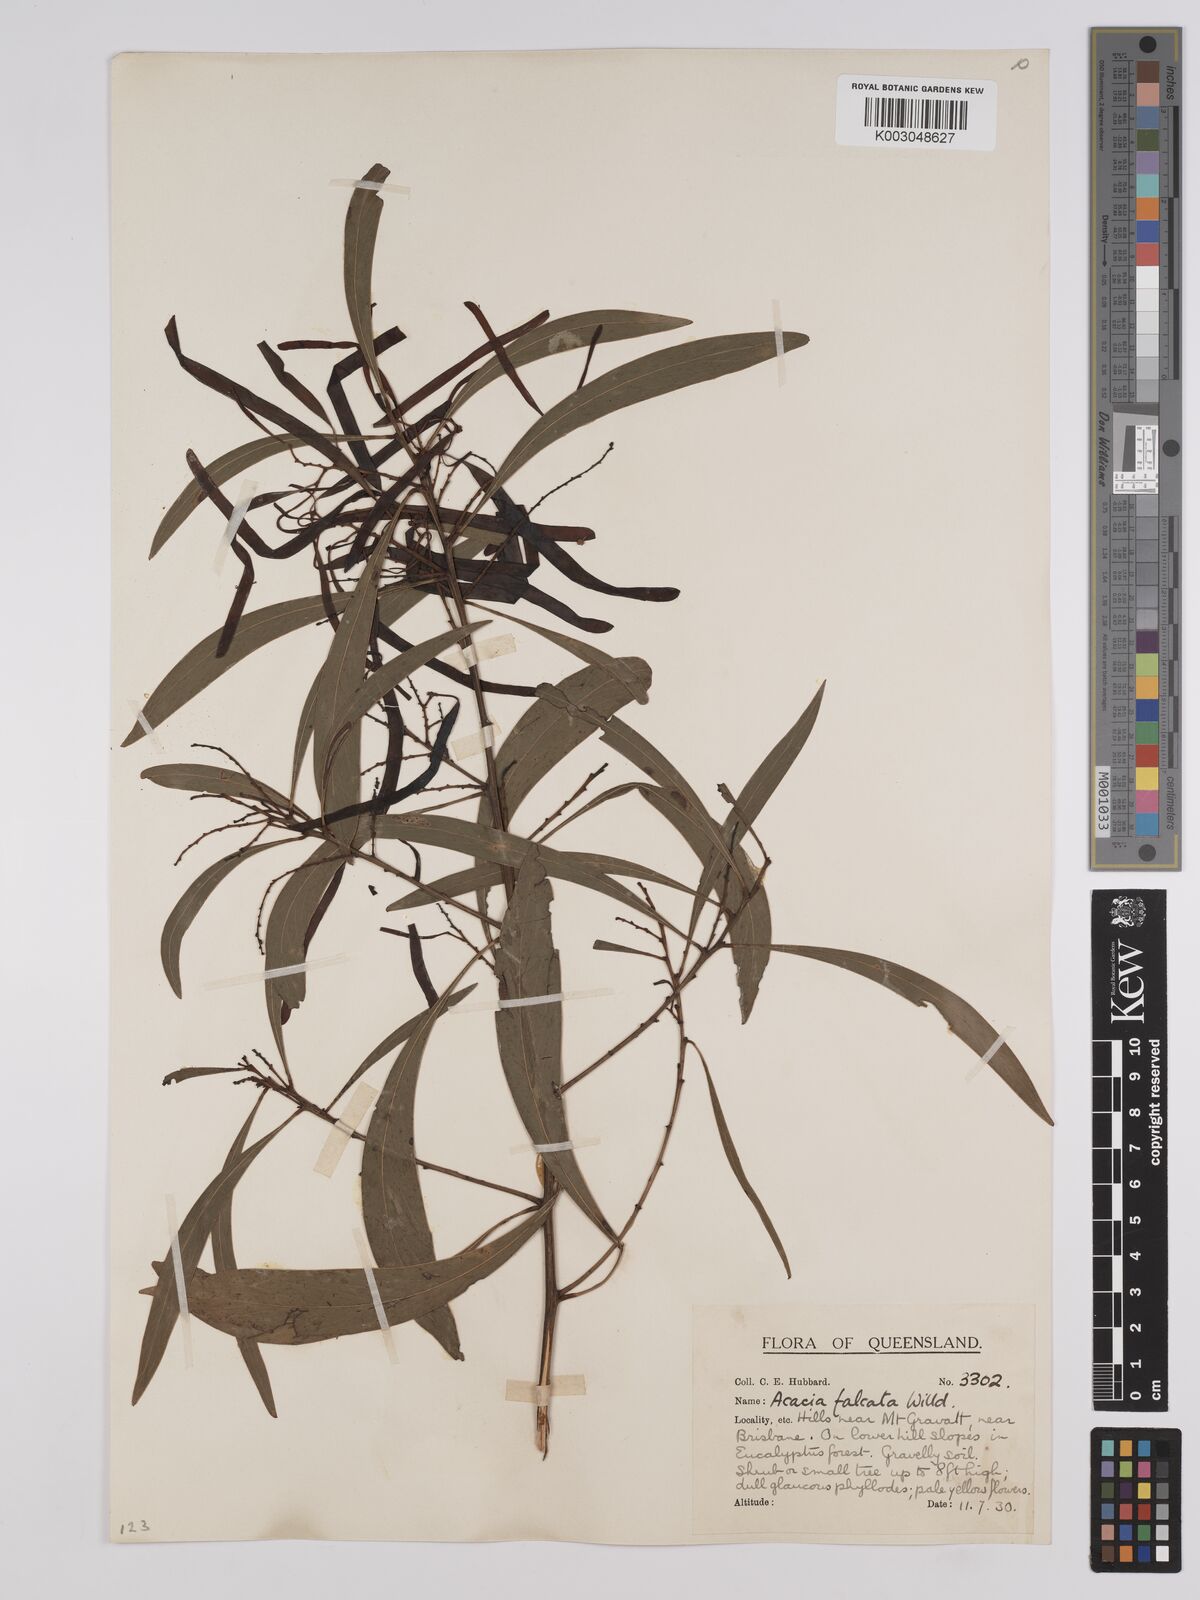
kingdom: Plantae
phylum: Tracheophyta
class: Magnoliopsida
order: Fabales
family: Fabaceae
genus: Acacia
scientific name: Acacia falcata
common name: Burra acacia
